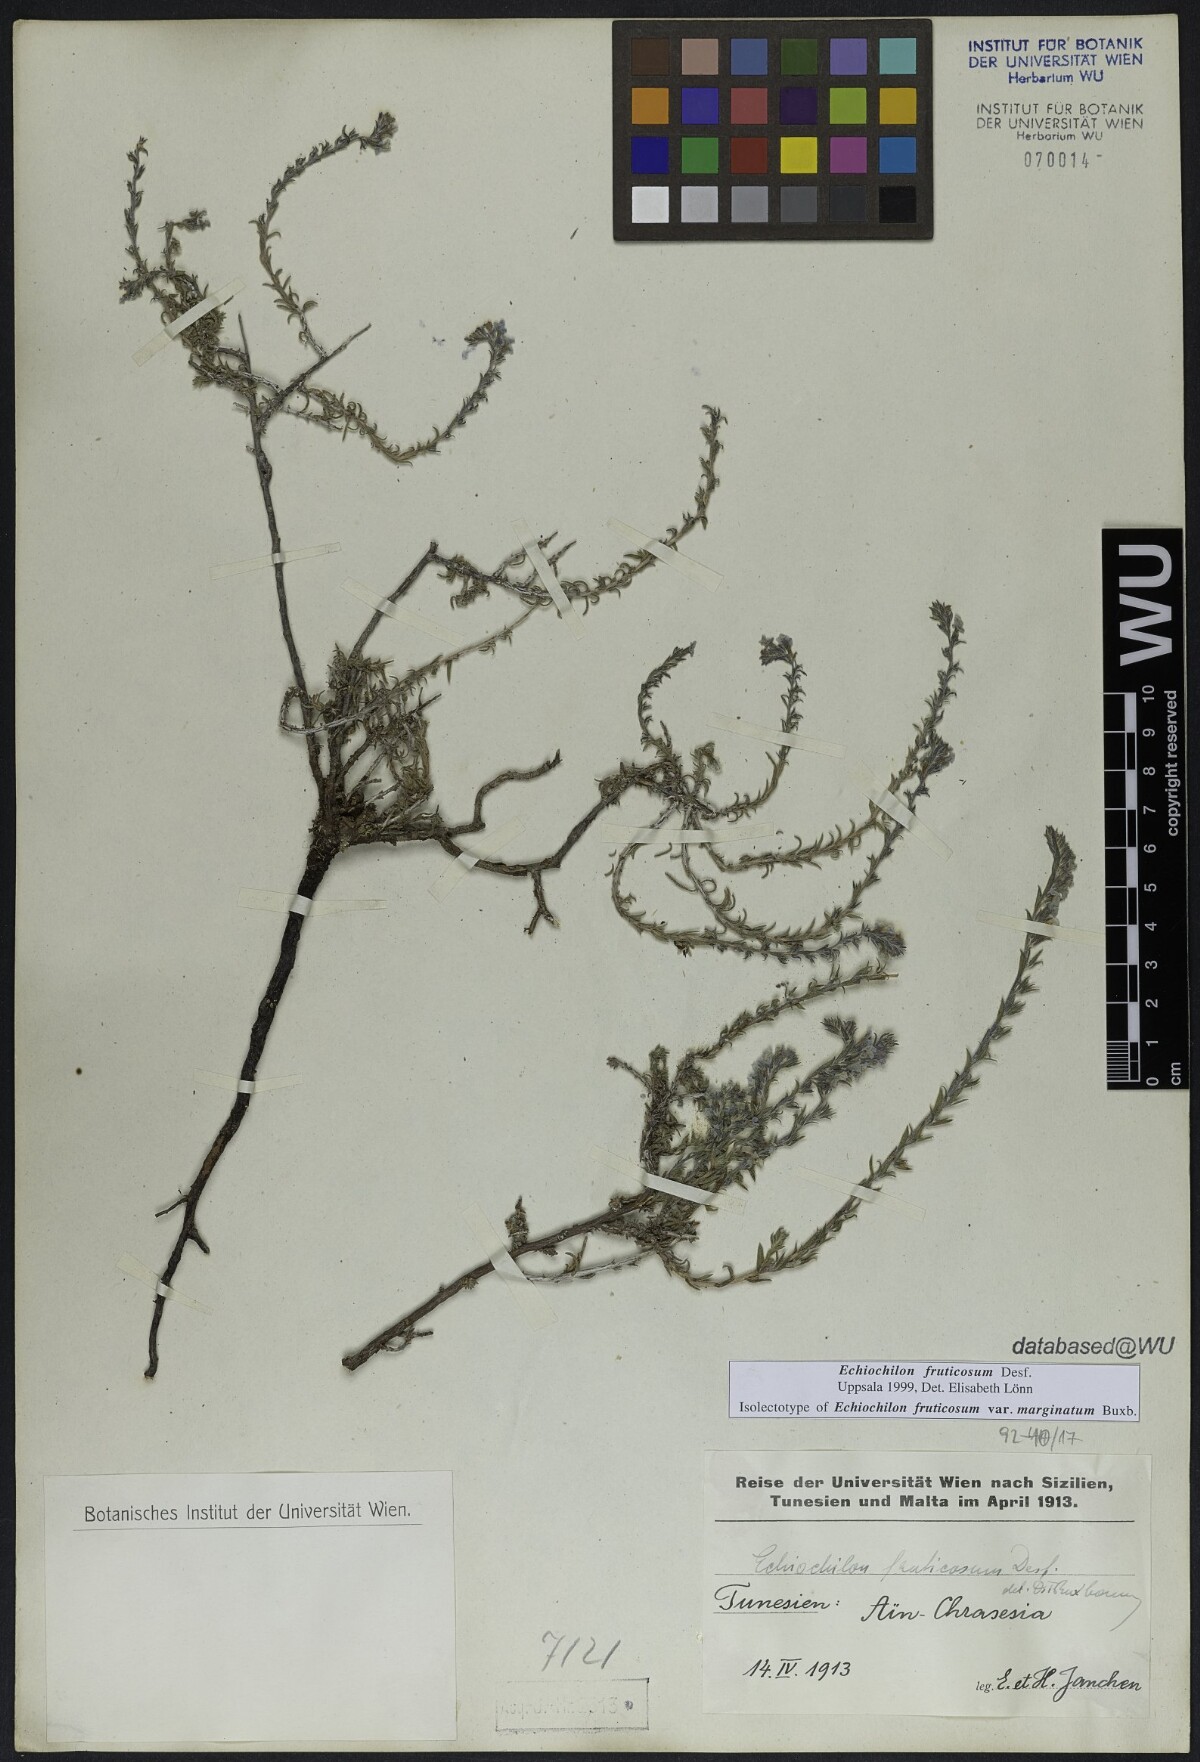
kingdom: Plantae
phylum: Tracheophyta
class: Magnoliopsida
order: Boraginales
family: Boraginaceae
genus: Echiochilon
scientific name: Echiochilon fruticosum
